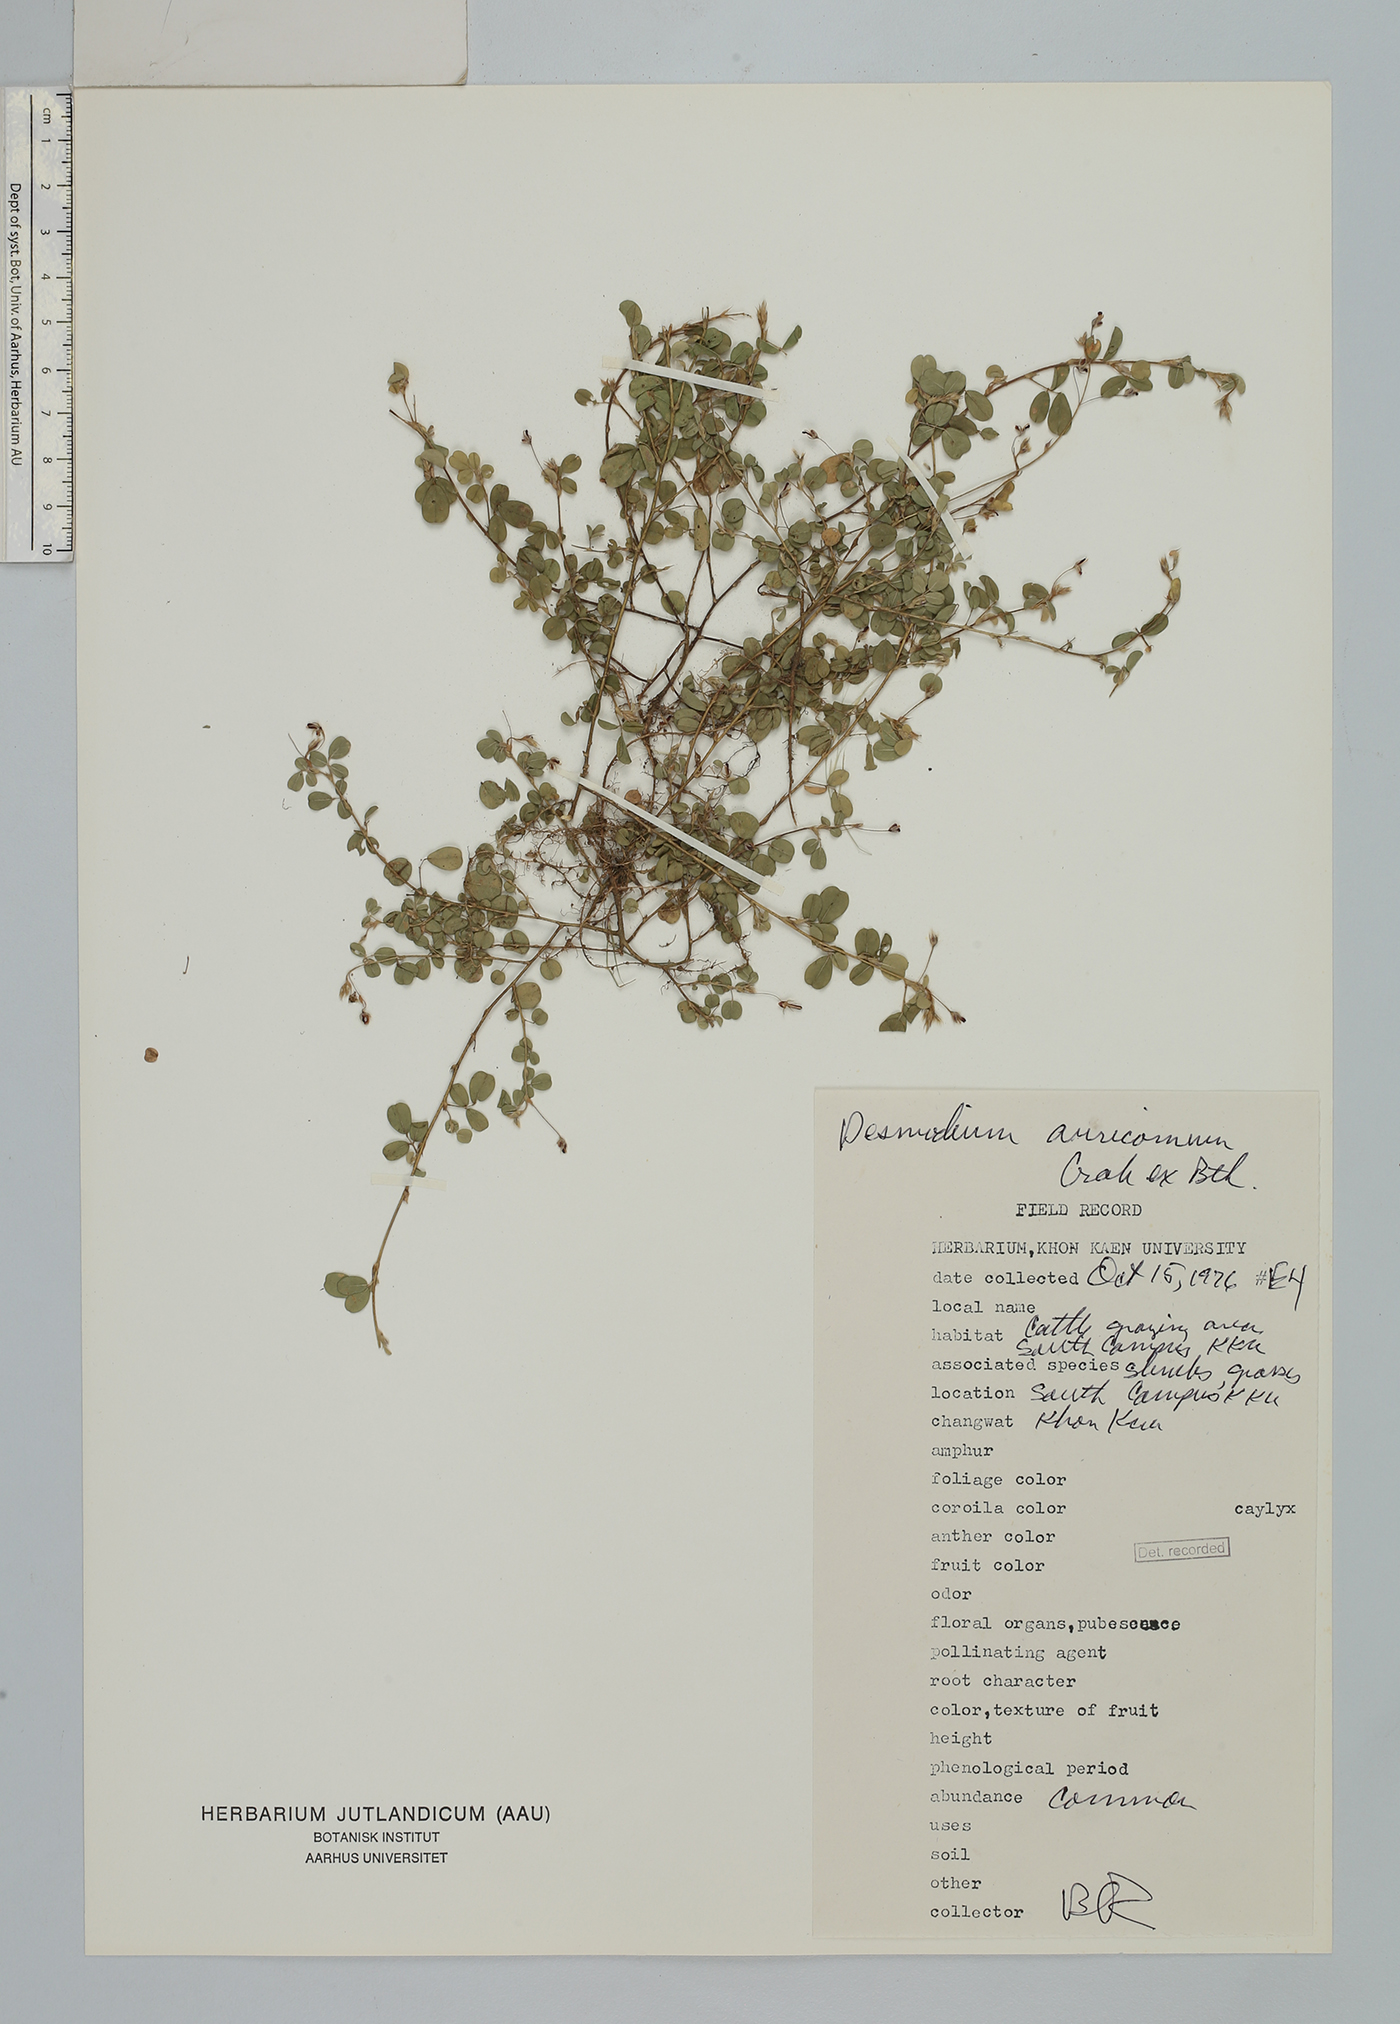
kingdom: Plantae
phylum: Tracheophyta
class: Magnoliopsida
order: Fabales
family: Fabaceae
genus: Grona
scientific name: Grona auricoma
